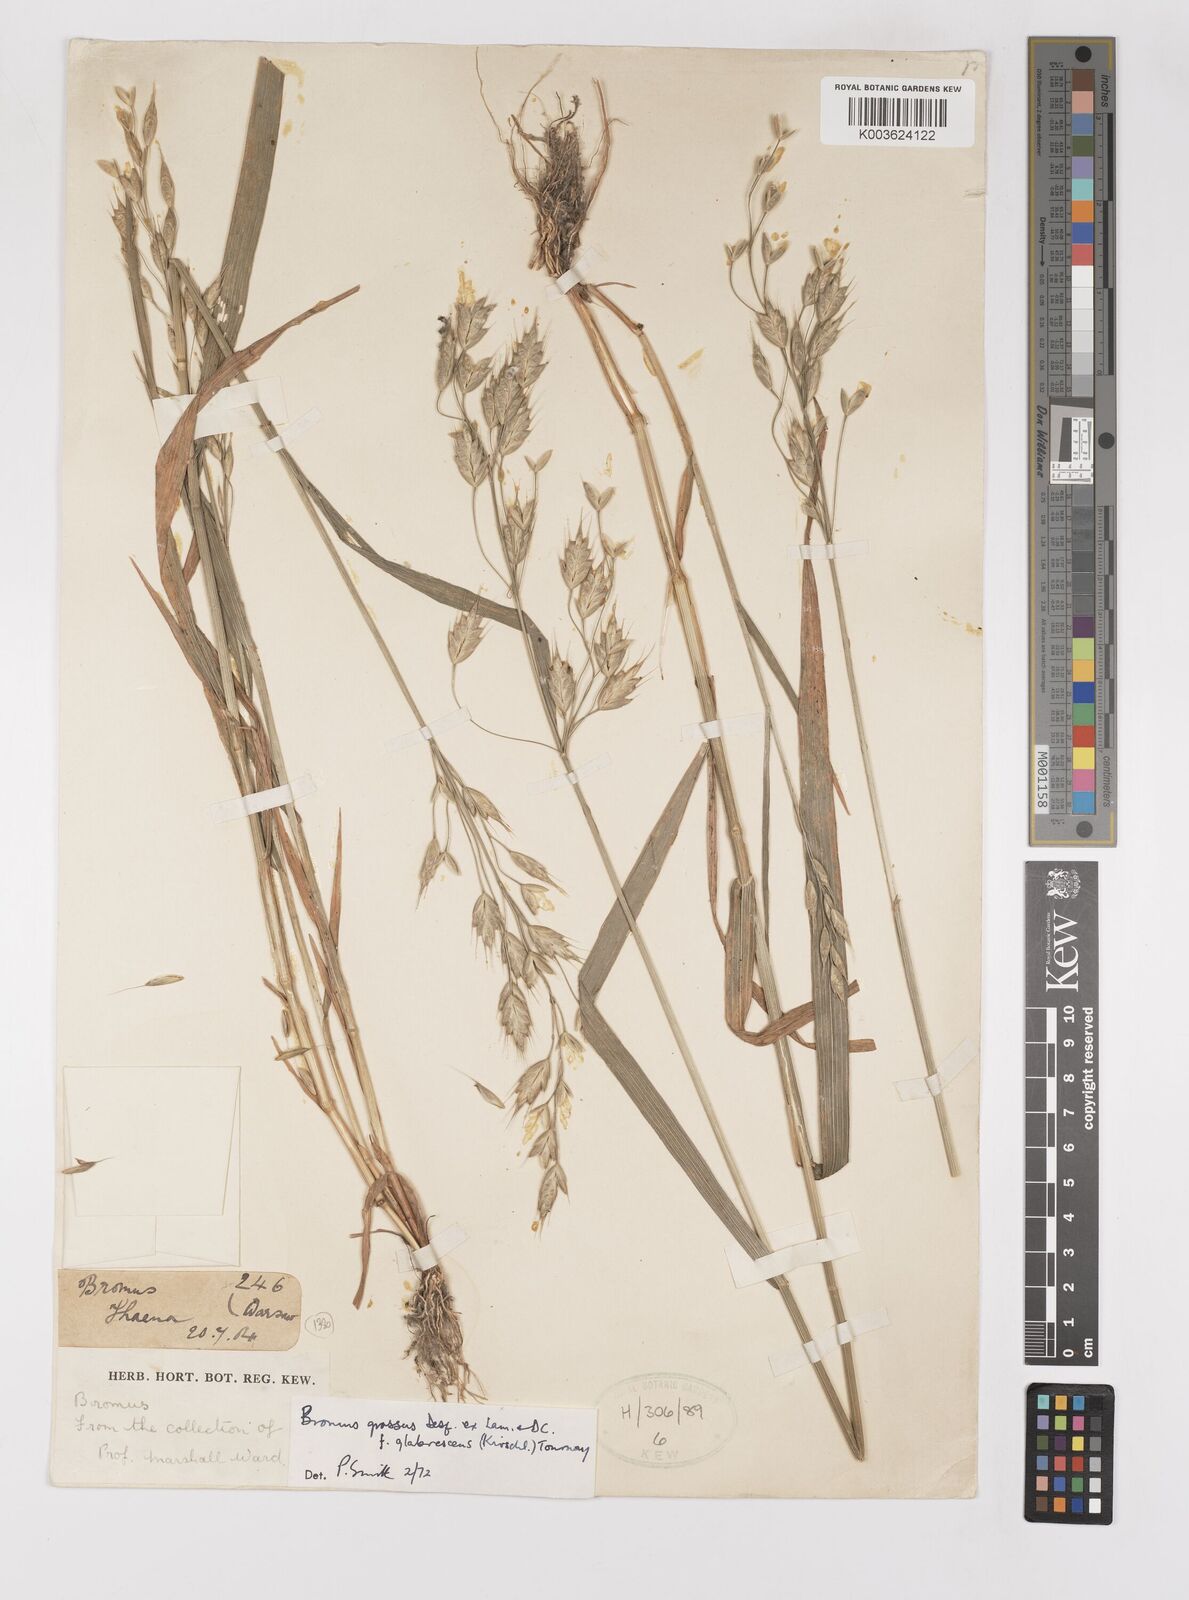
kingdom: Plantae
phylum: Tracheophyta
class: Liliopsida
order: Poales
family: Poaceae
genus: Bromus
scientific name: Bromus grossus
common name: Whiskered brome
